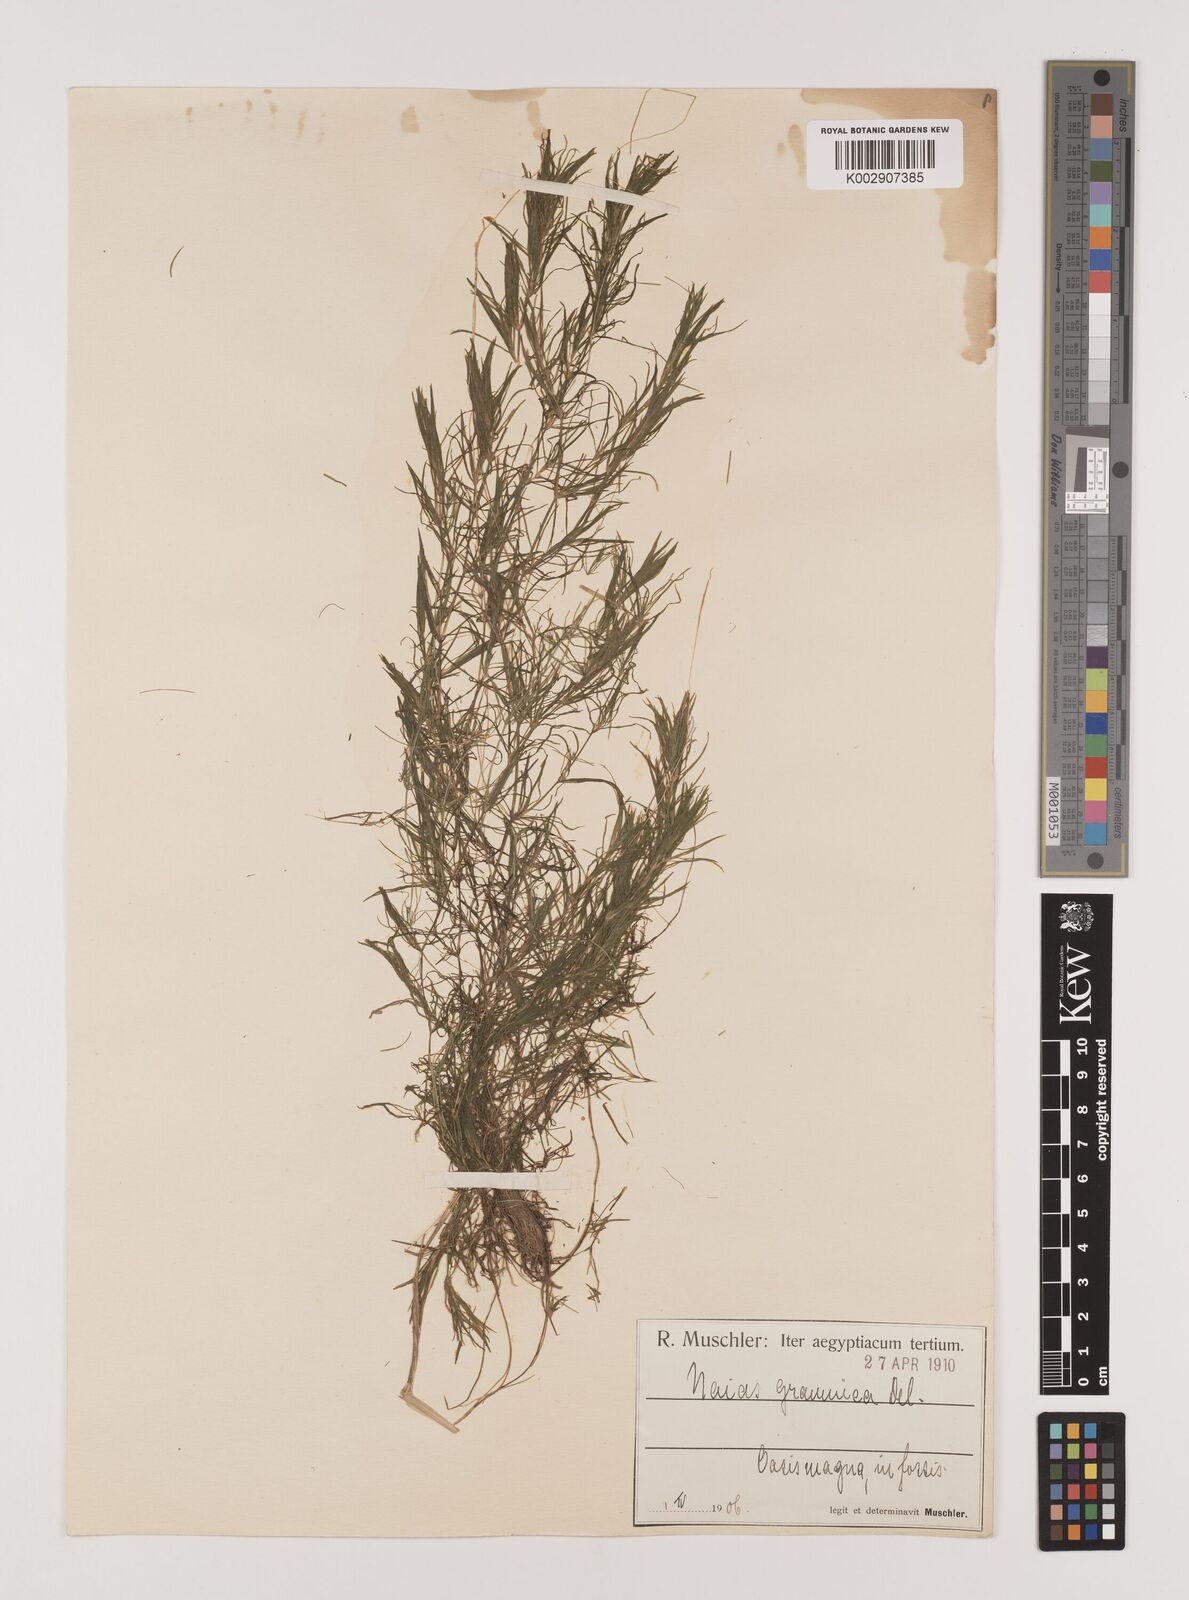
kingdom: Plantae
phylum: Tracheophyta
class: Liliopsida
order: Alismatales
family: Hydrocharitaceae
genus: Najas
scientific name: Najas graminea
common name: Ricefield waternymph
